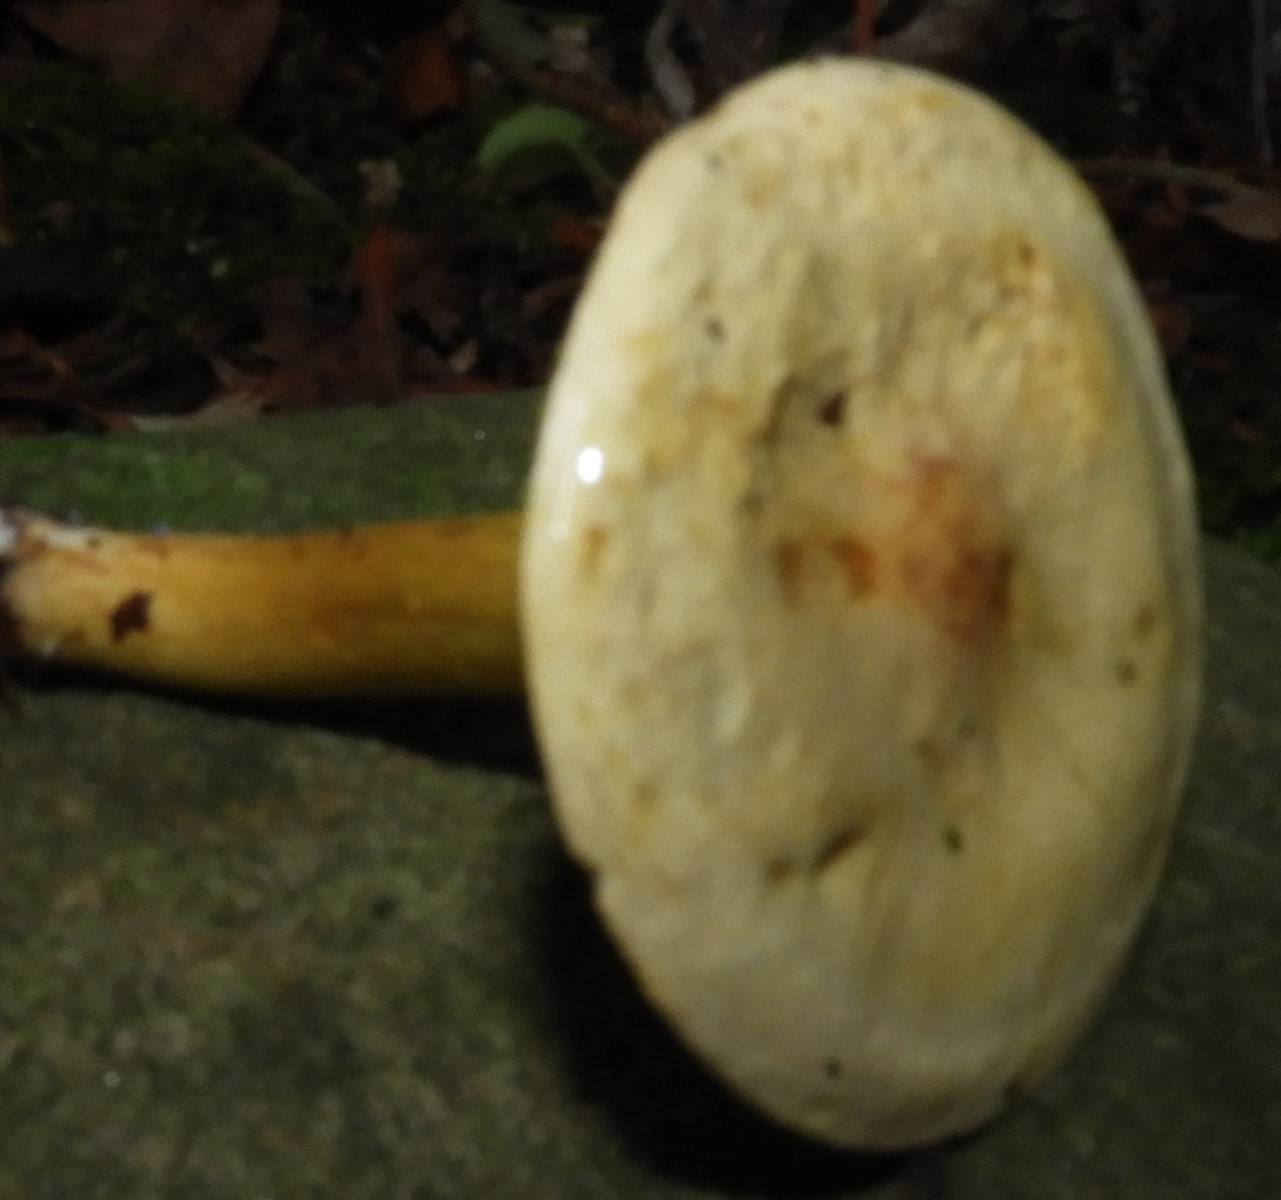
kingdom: Fungi
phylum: Basidiomycota
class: Agaricomycetes
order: Agaricales
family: Tricholomataceae
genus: Tricholoma
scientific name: Tricholoma sulphureum
